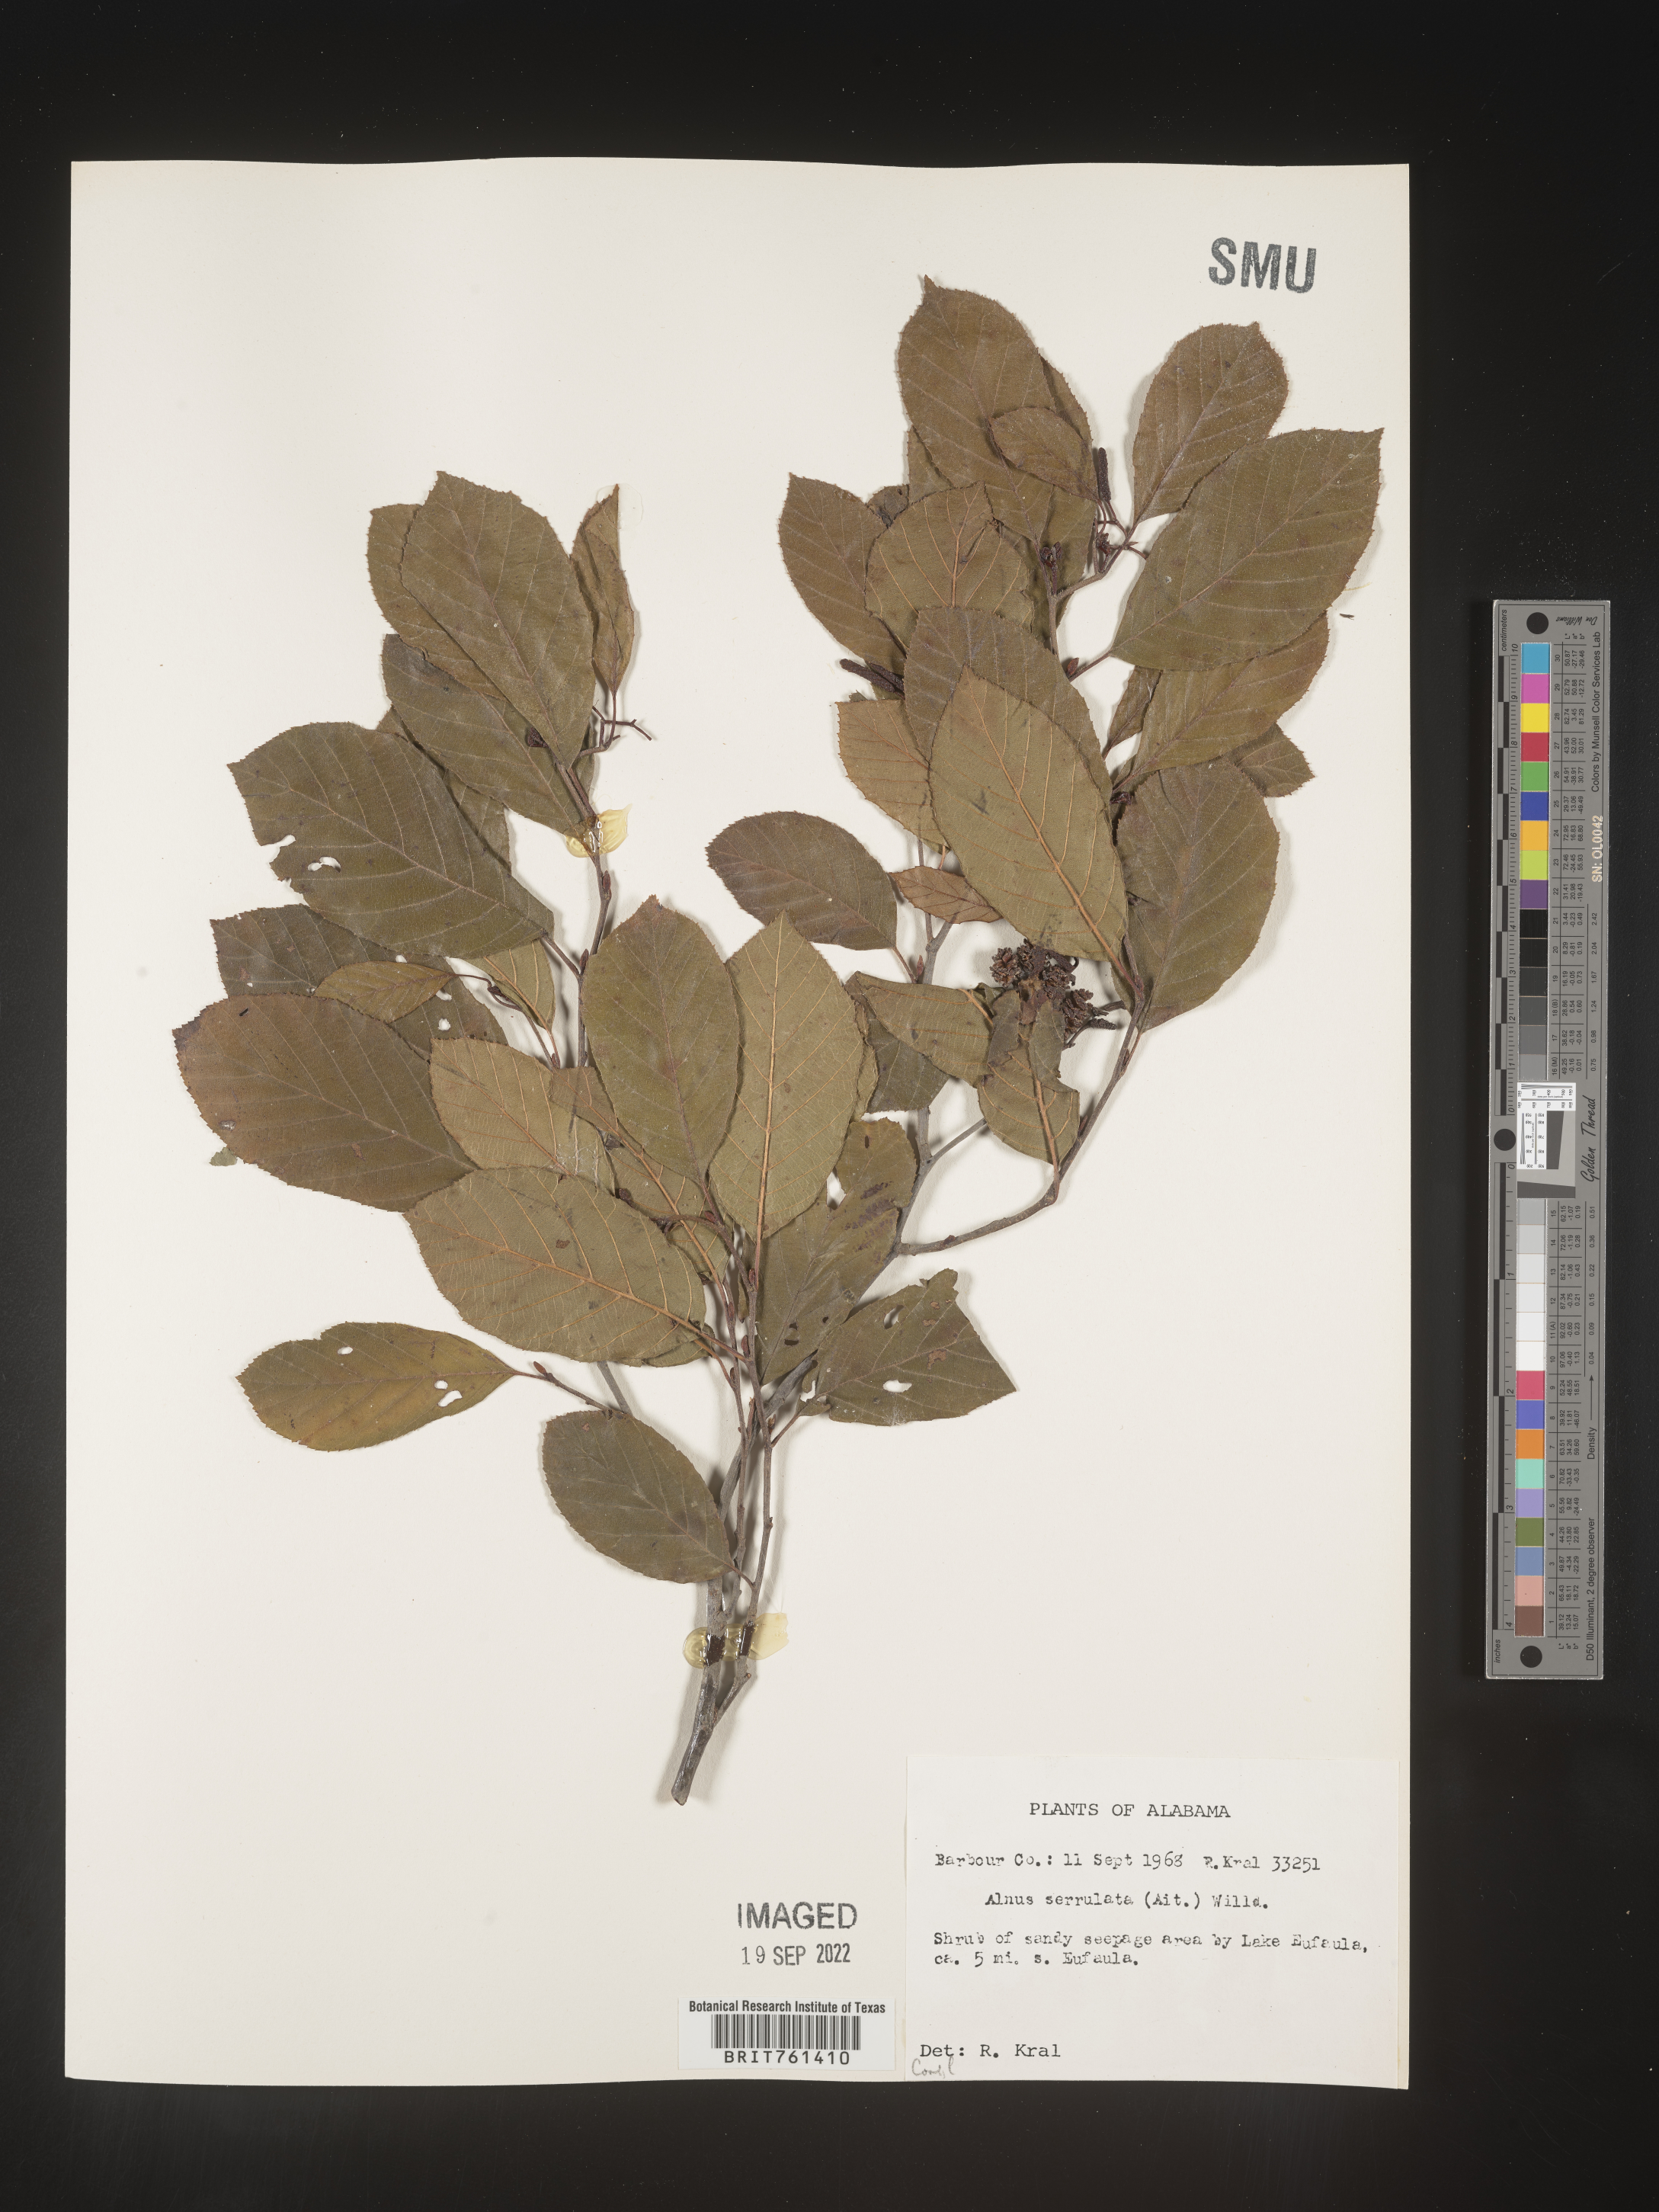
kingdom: Plantae
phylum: Tracheophyta
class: Magnoliopsida
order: Fagales
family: Betulaceae
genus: Alnus
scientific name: Alnus serrulata
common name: Hazel alder
